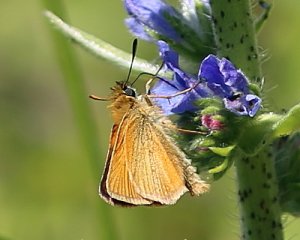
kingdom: Animalia
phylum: Arthropoda
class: Insecta
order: Lepidoptera
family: Hesperiidae
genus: Thymelicus
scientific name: Thymelicus lineola
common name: European Skipper
